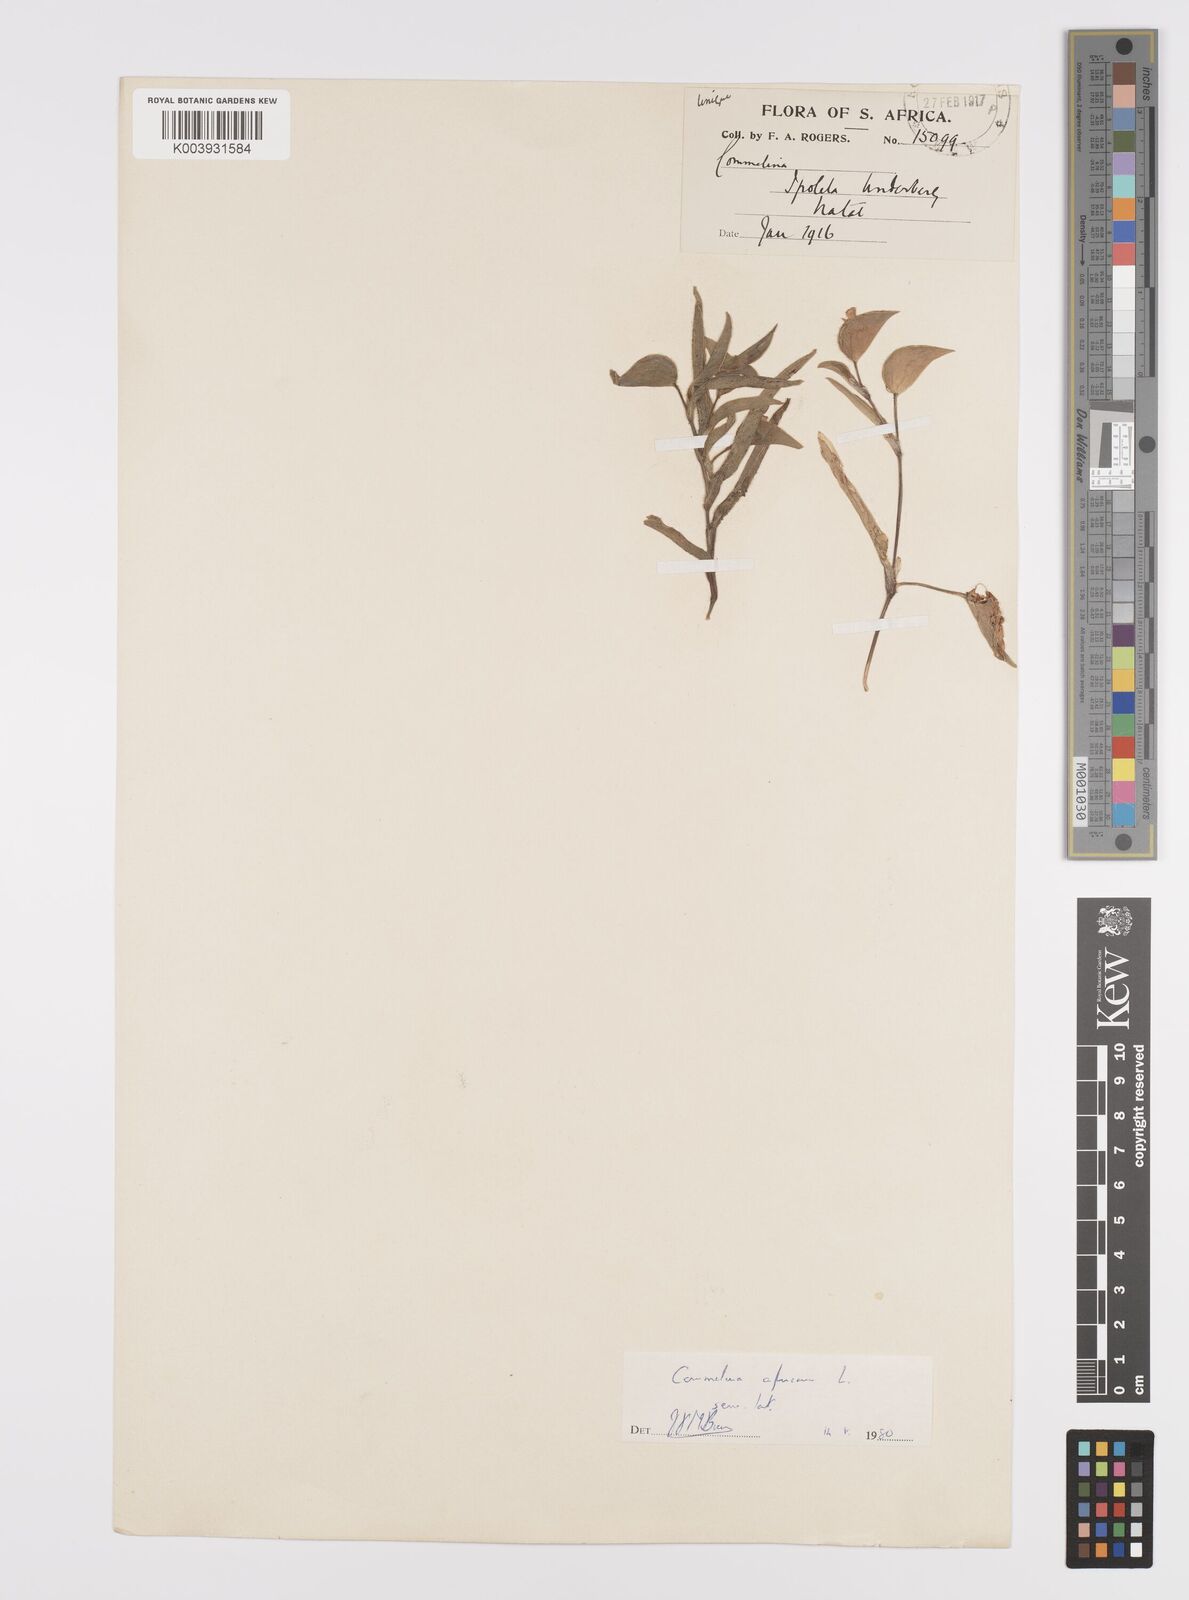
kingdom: Plantae
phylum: Tracheophyta
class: Liliopsida
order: Commelinales
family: Commelinaceae
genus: Commelina
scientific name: Commelina africana
